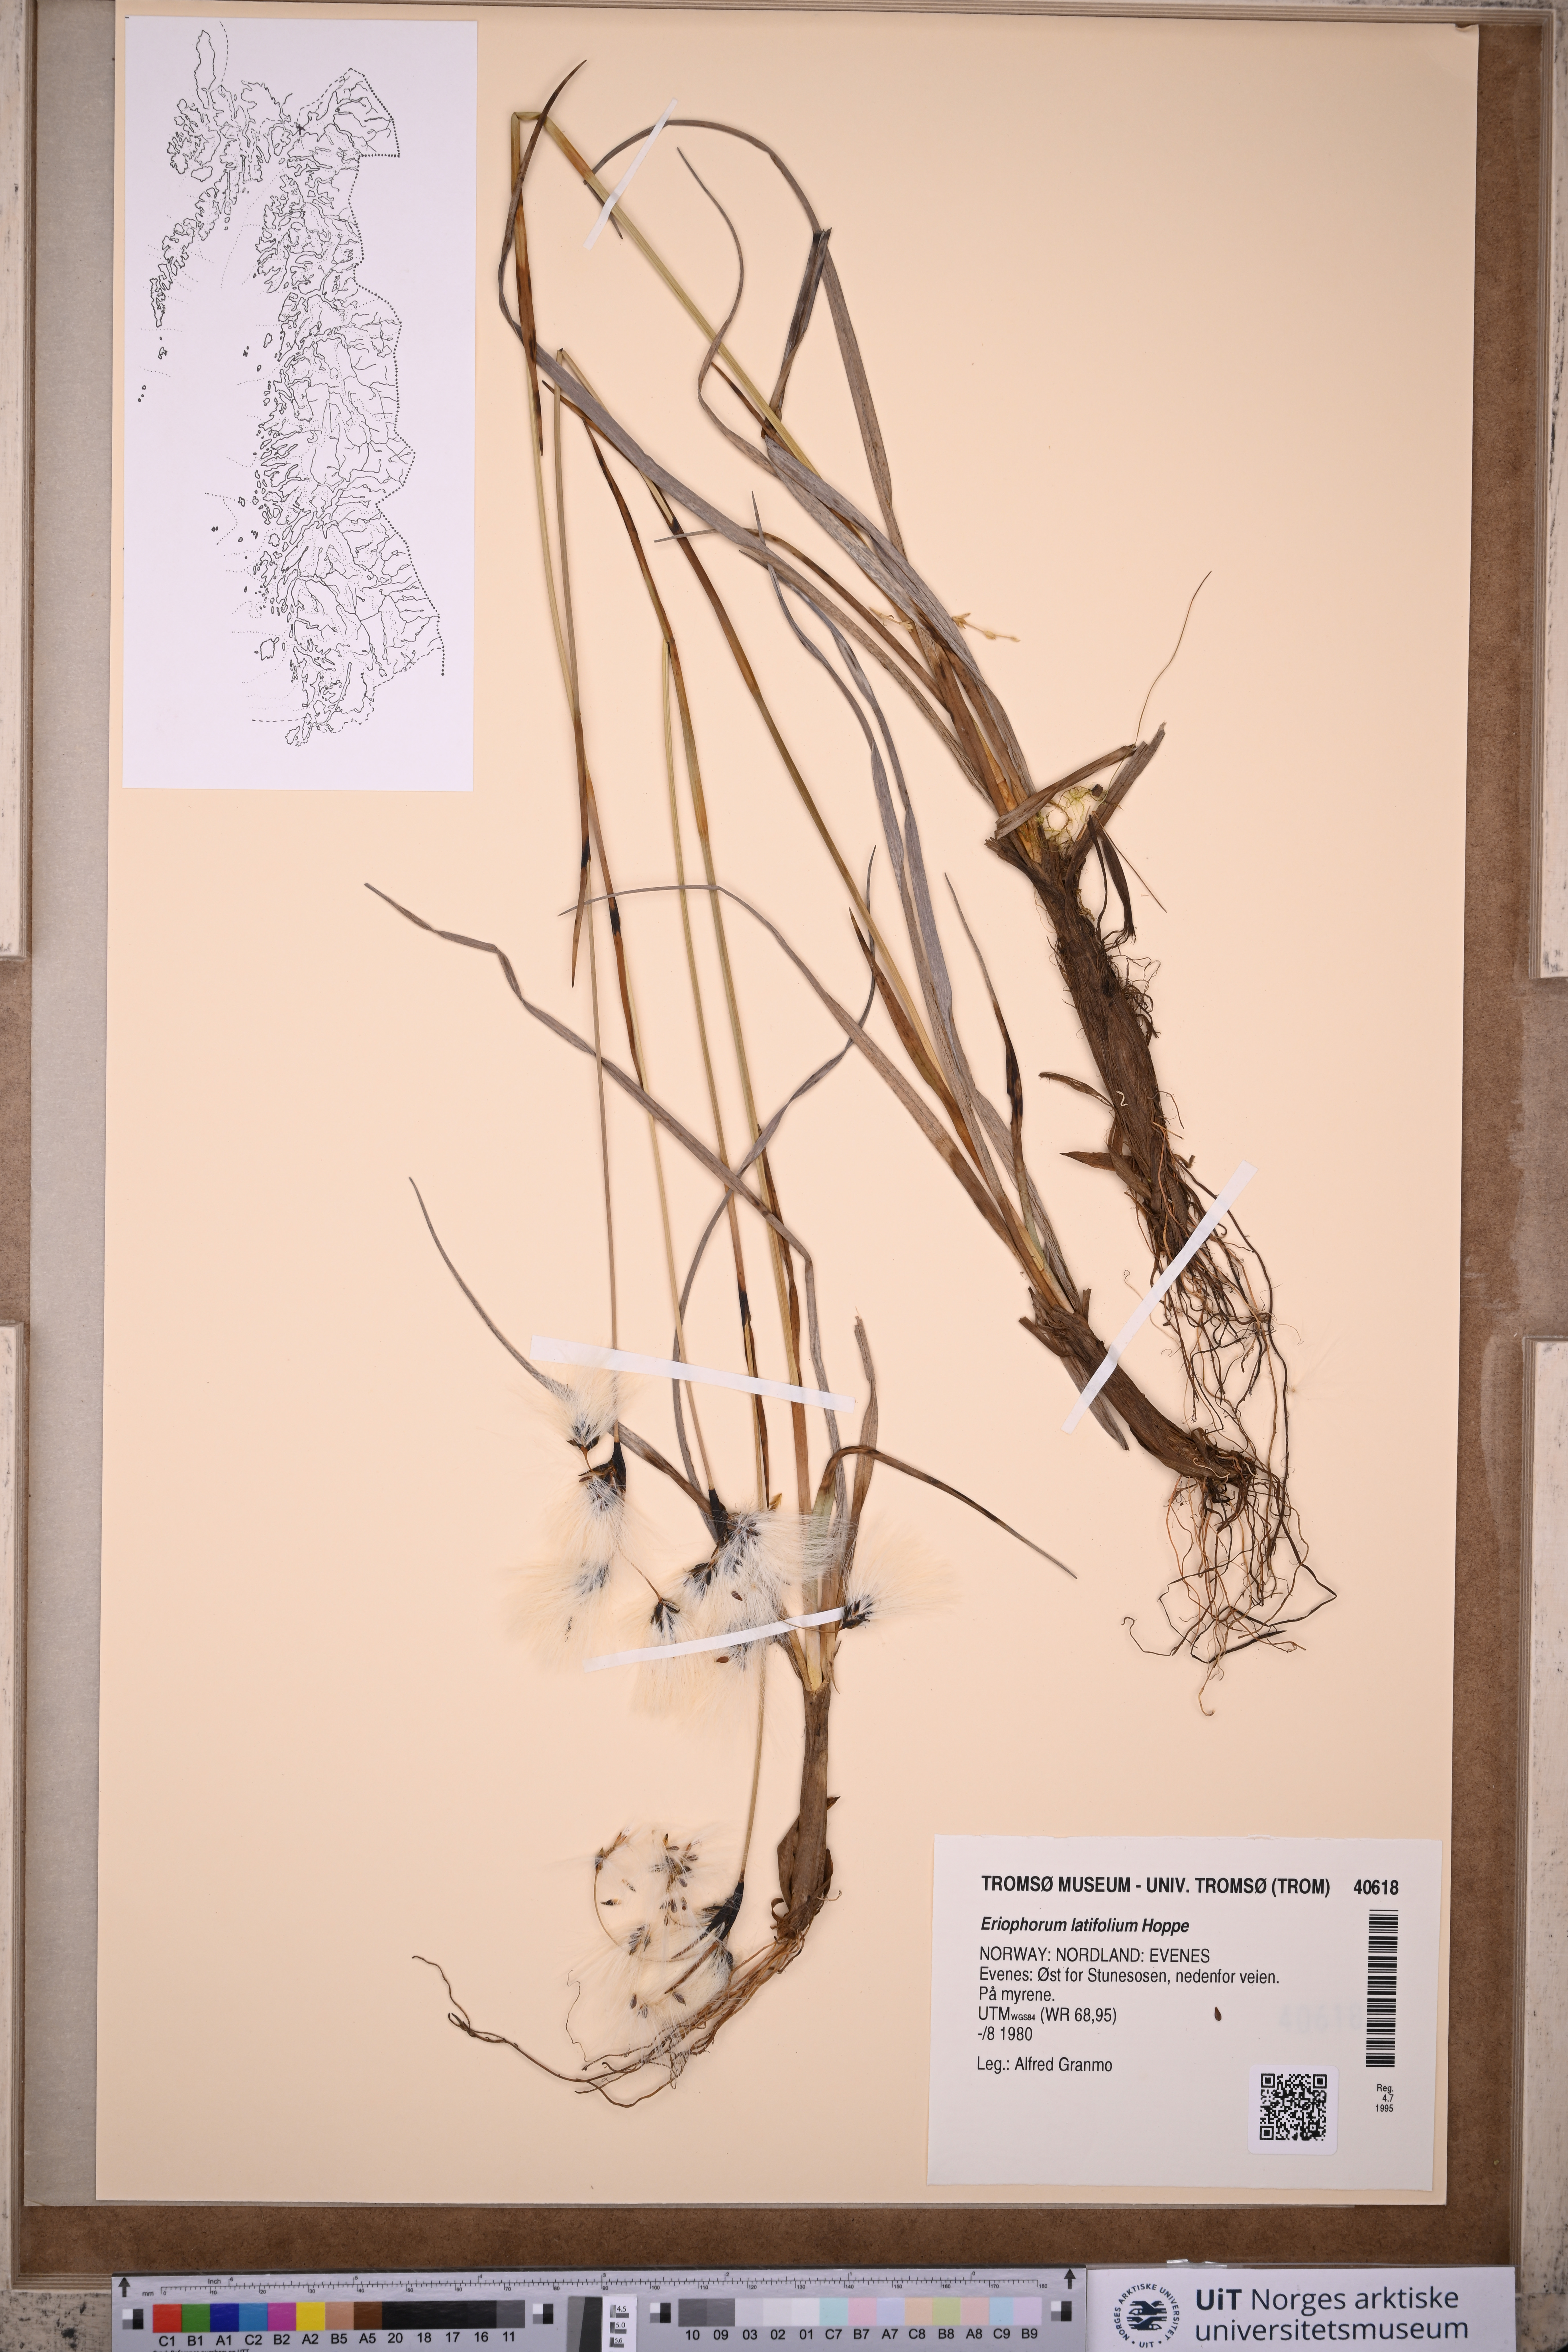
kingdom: Plantae
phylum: Tracheophyta
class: Liliopsida
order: Poales
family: Cyperaceae
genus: Eriophorum
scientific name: Eriophorum latifolium
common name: Broad-leaved cottongrass
